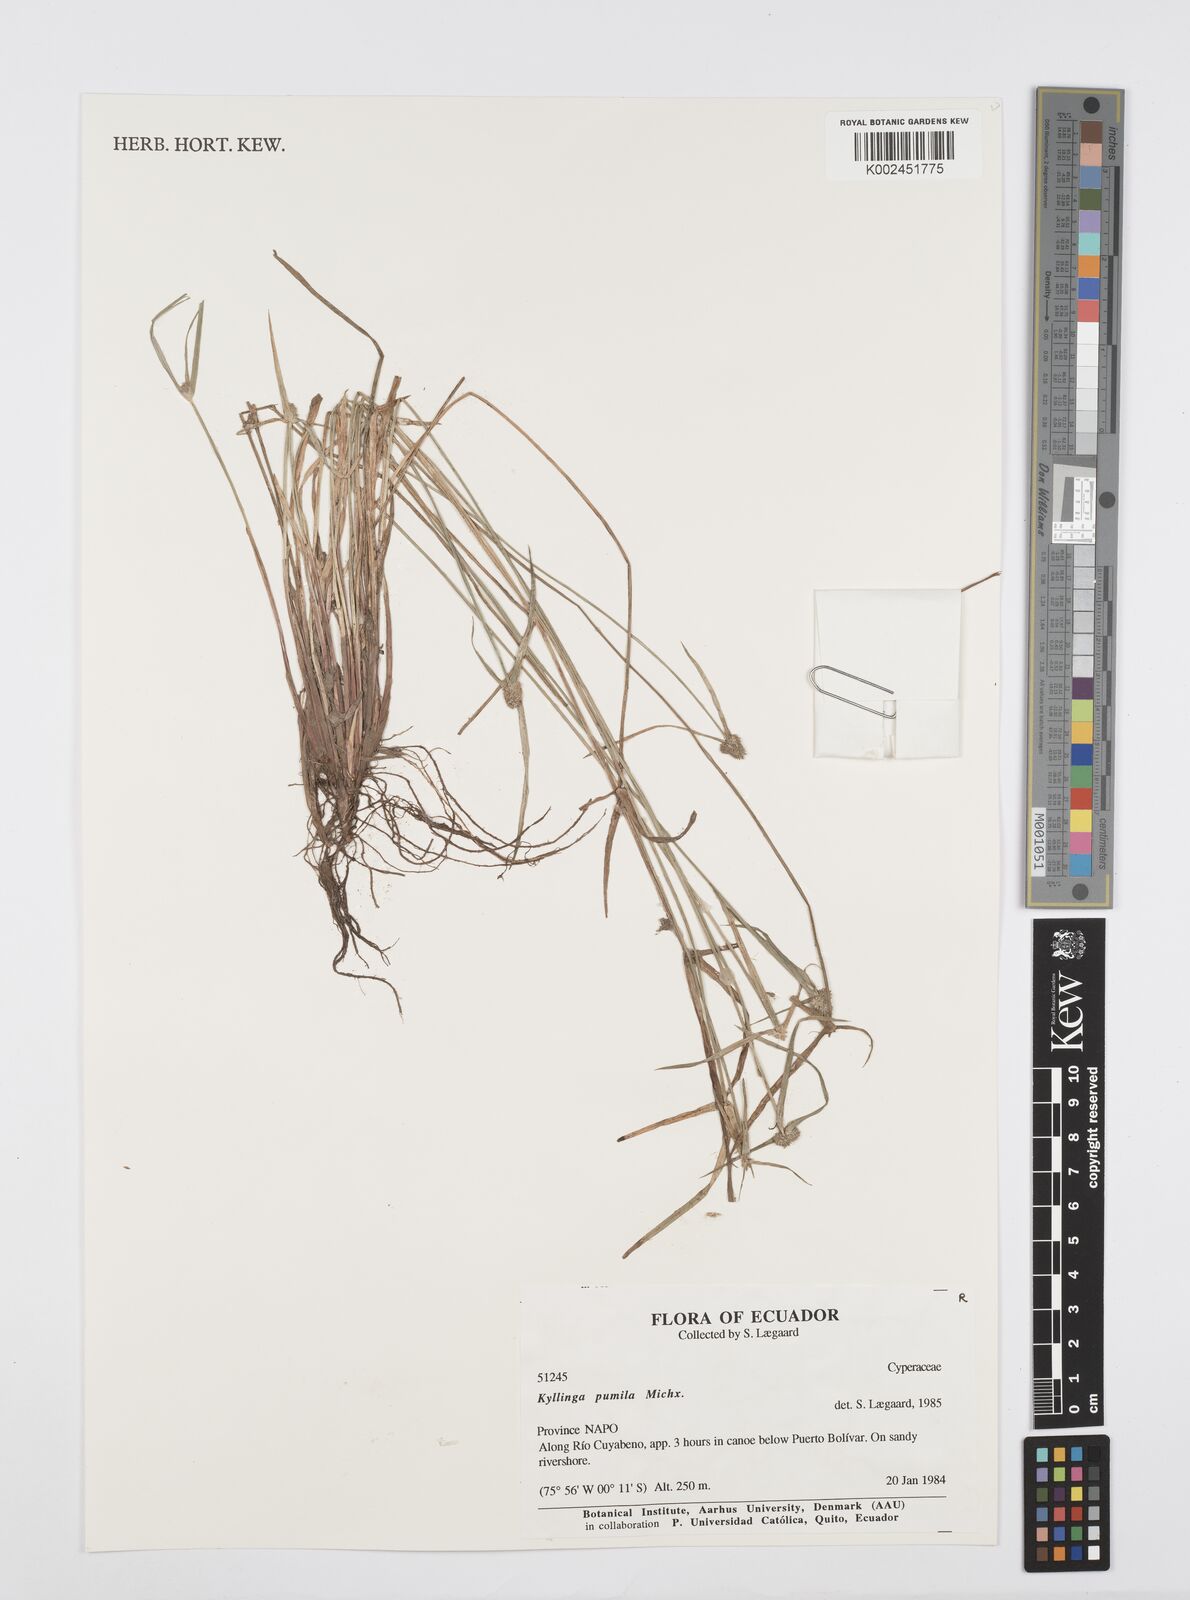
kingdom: Plantae
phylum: Tracheophyta
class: Liliopsida
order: Poales
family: Cyperaceae
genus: Cyperus
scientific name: Cyperus
